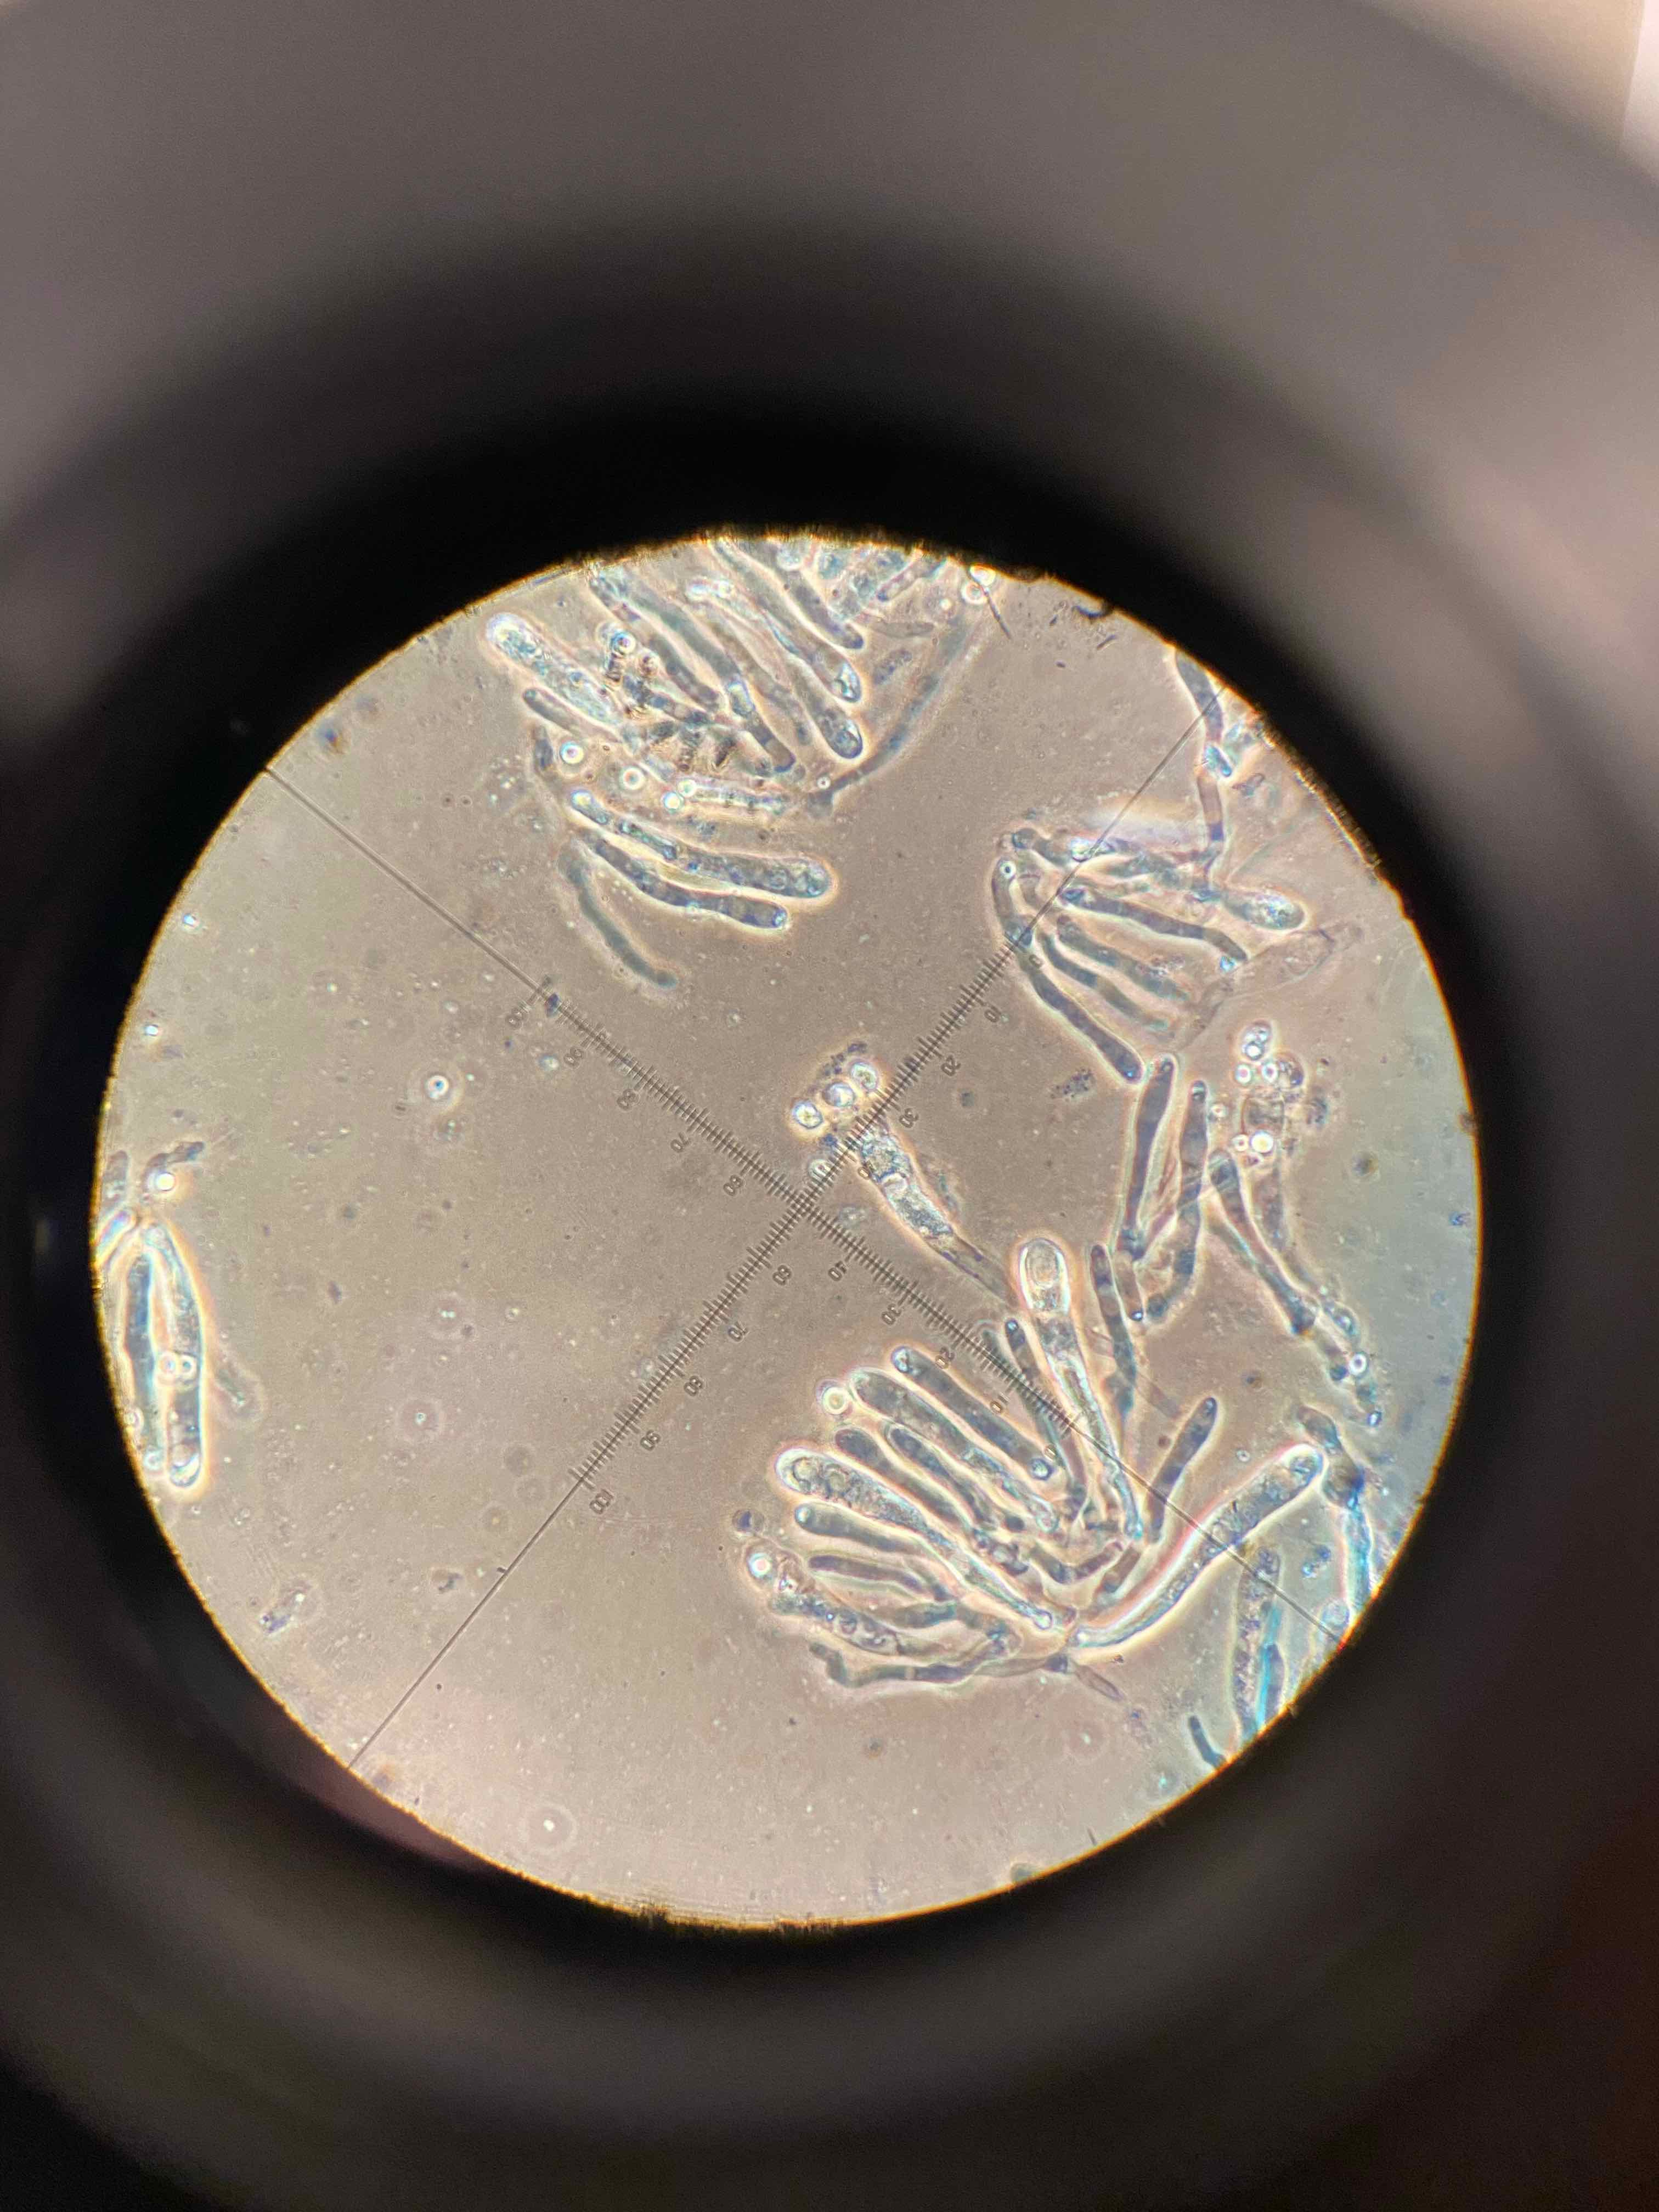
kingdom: Fungi
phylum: Basidiomycota
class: Agaricomycetes
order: Agaricales
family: Hygrophoraceae
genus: Hygrocybe
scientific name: Hygrocybe miniata
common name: mønje-vokshat
